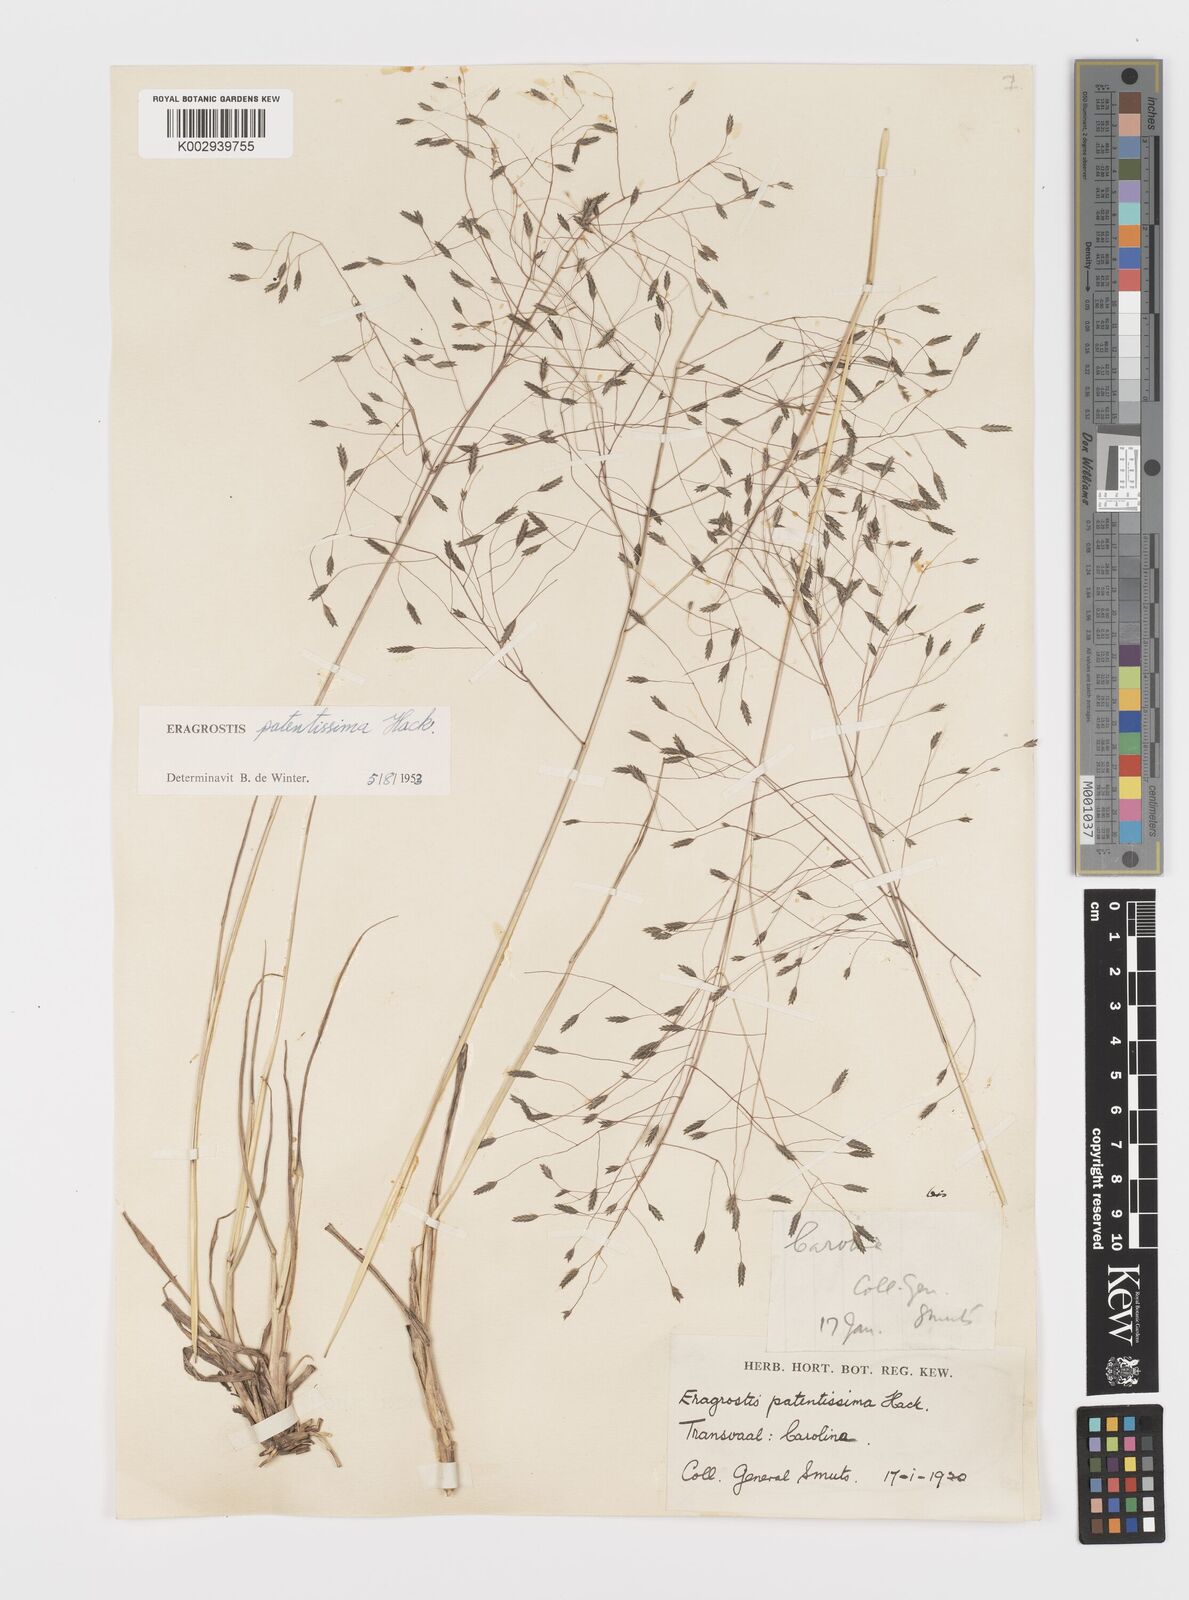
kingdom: Plantae
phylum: Tracheophyta
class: Liliopsida
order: Poales
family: Poaceae
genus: Eragrostis
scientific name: Eragrostis patentissima
